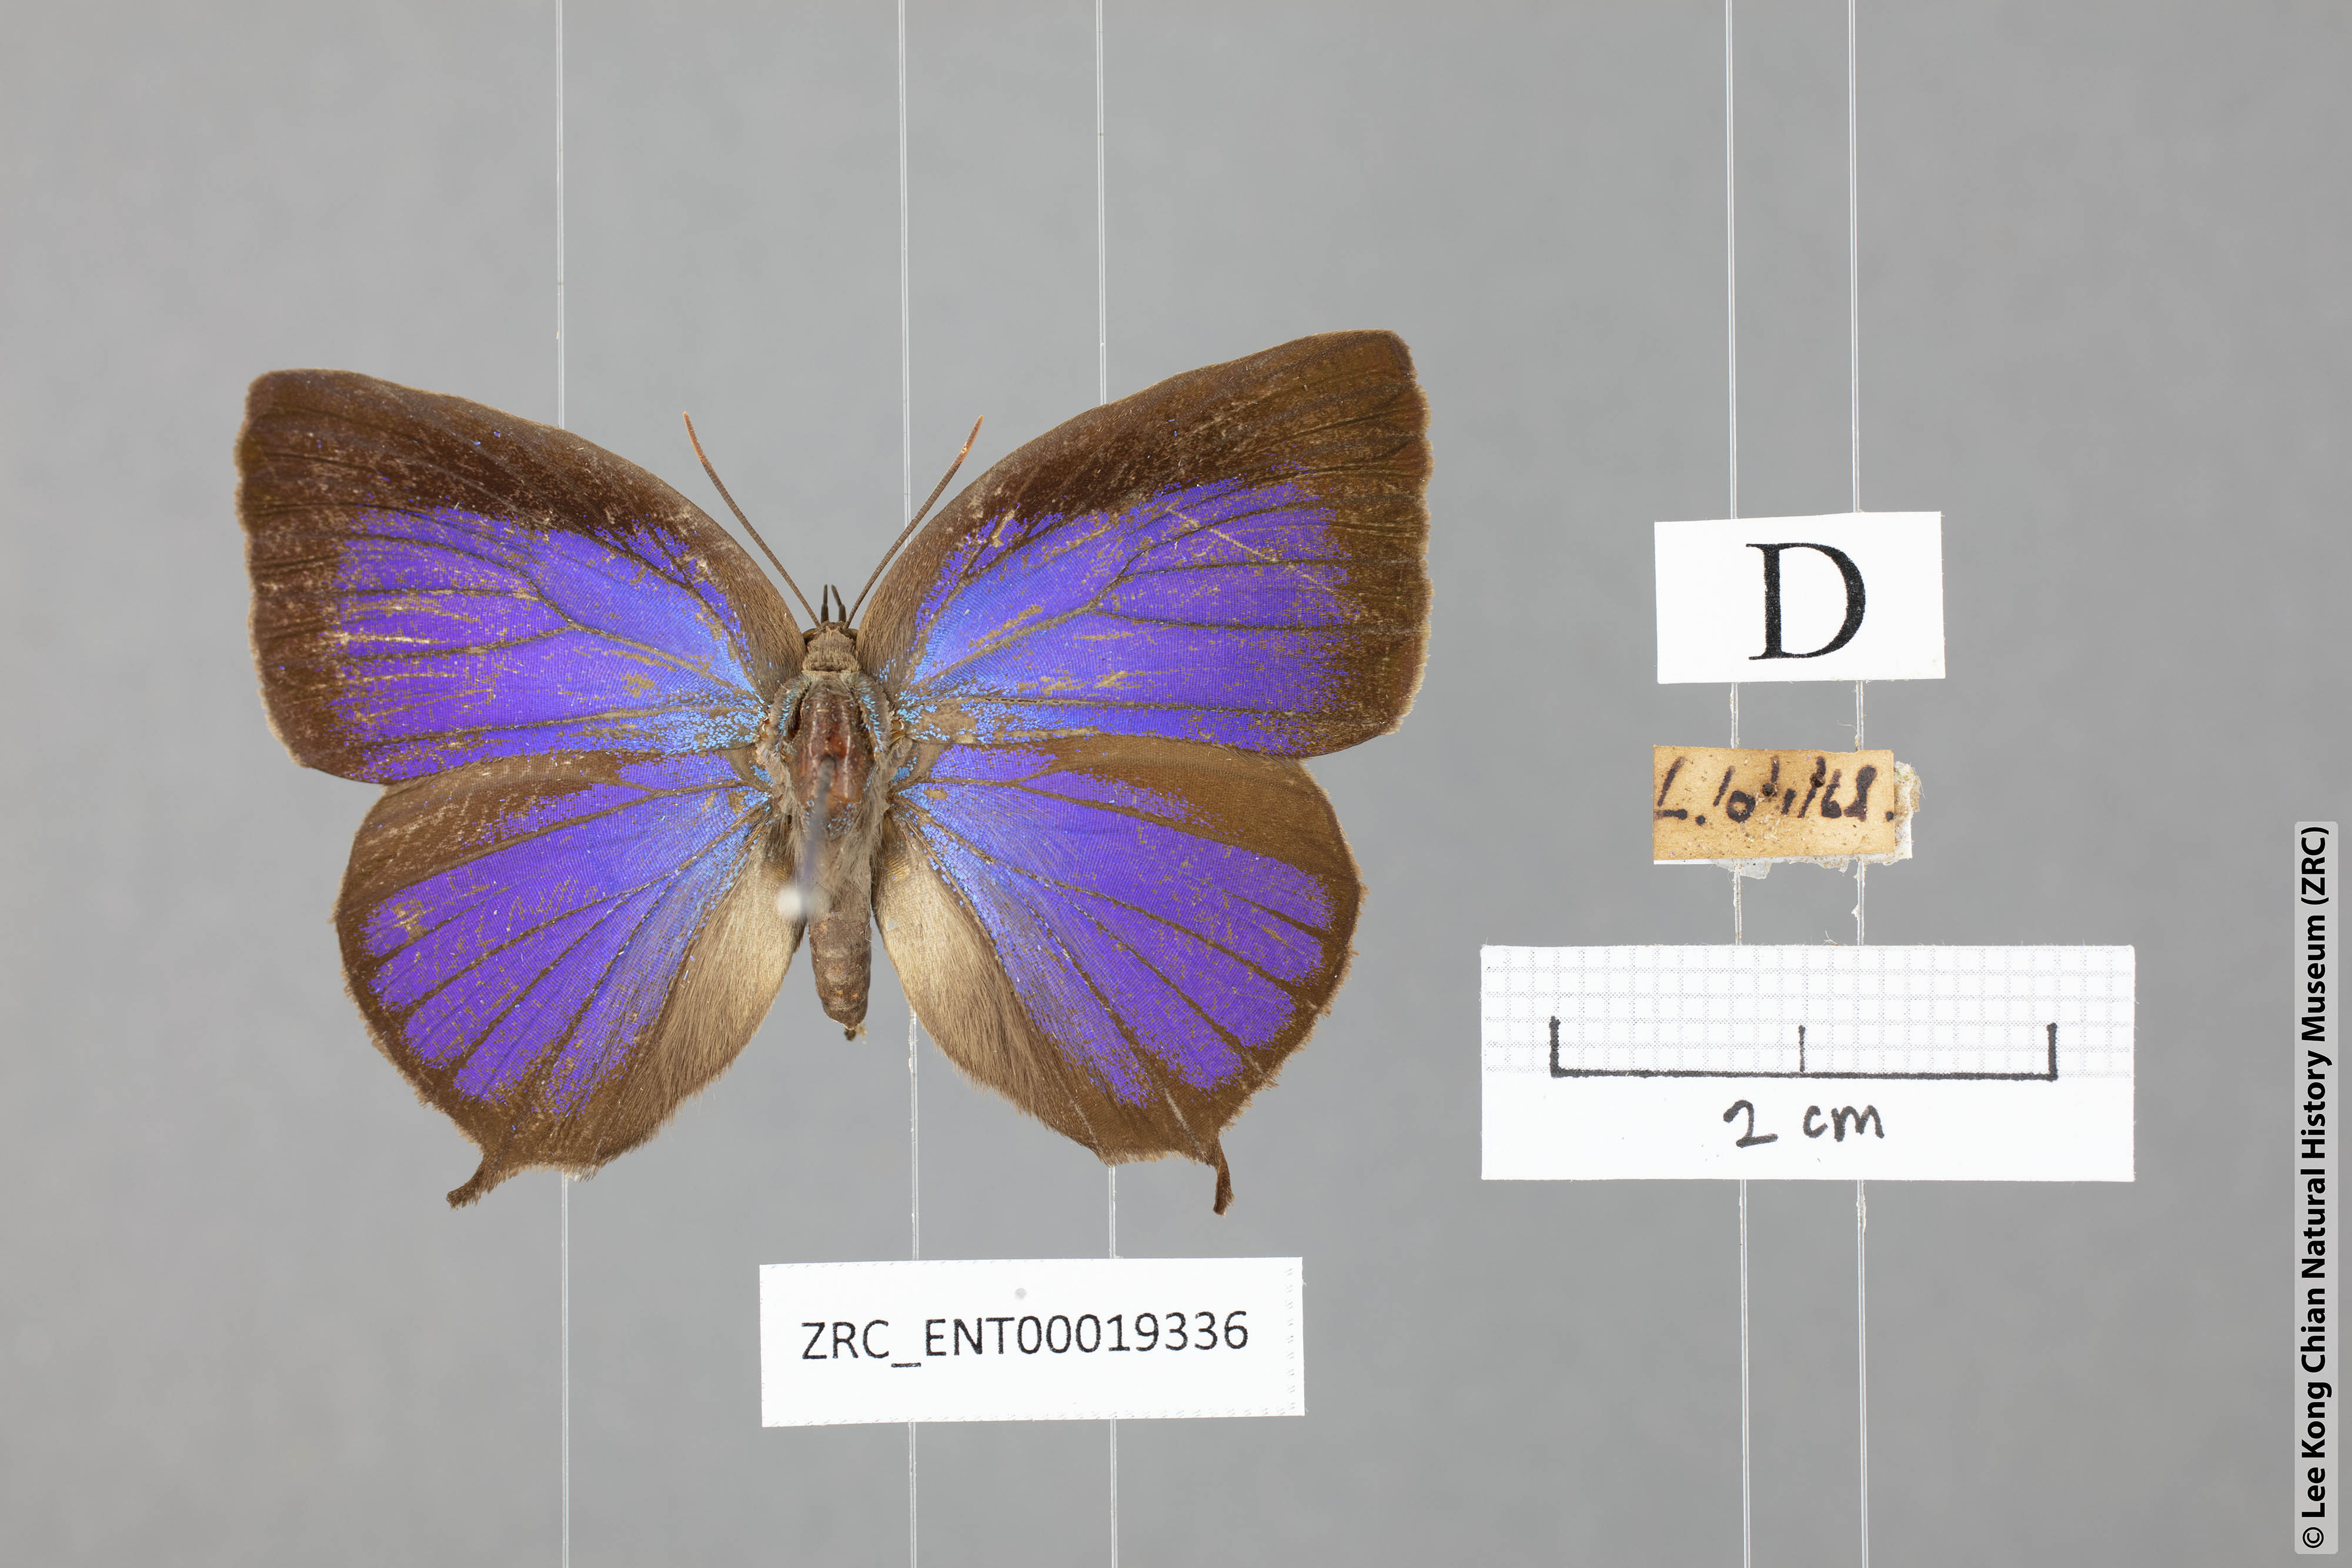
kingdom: Animalia
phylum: Arthropoda
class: Insecta
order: Lepidoptera
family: Lycaenidae
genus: Arhopala
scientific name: Arhopala centaurus
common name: Dull oak-blue
